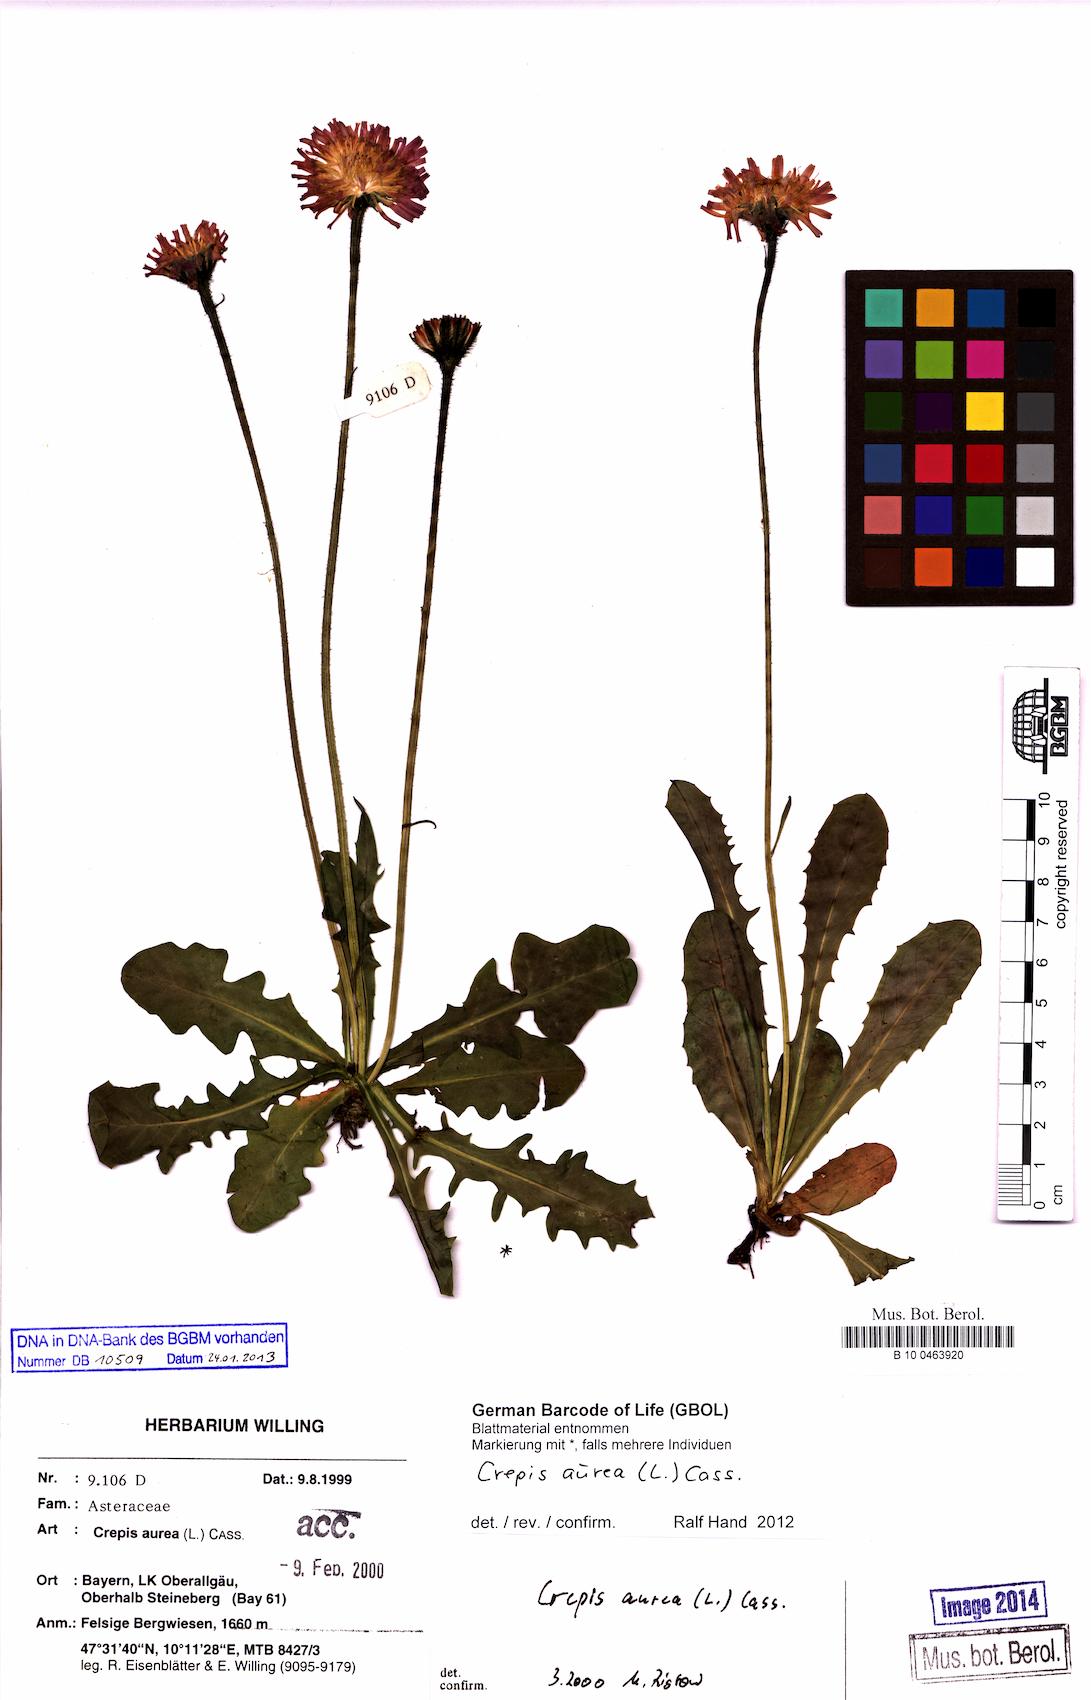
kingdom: Plantae
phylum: Tracheophyta
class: Magnoliopsida
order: Asterales
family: Asteraceae
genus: Crepis
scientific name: Crepis aurea
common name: Golden hawk's-beard
